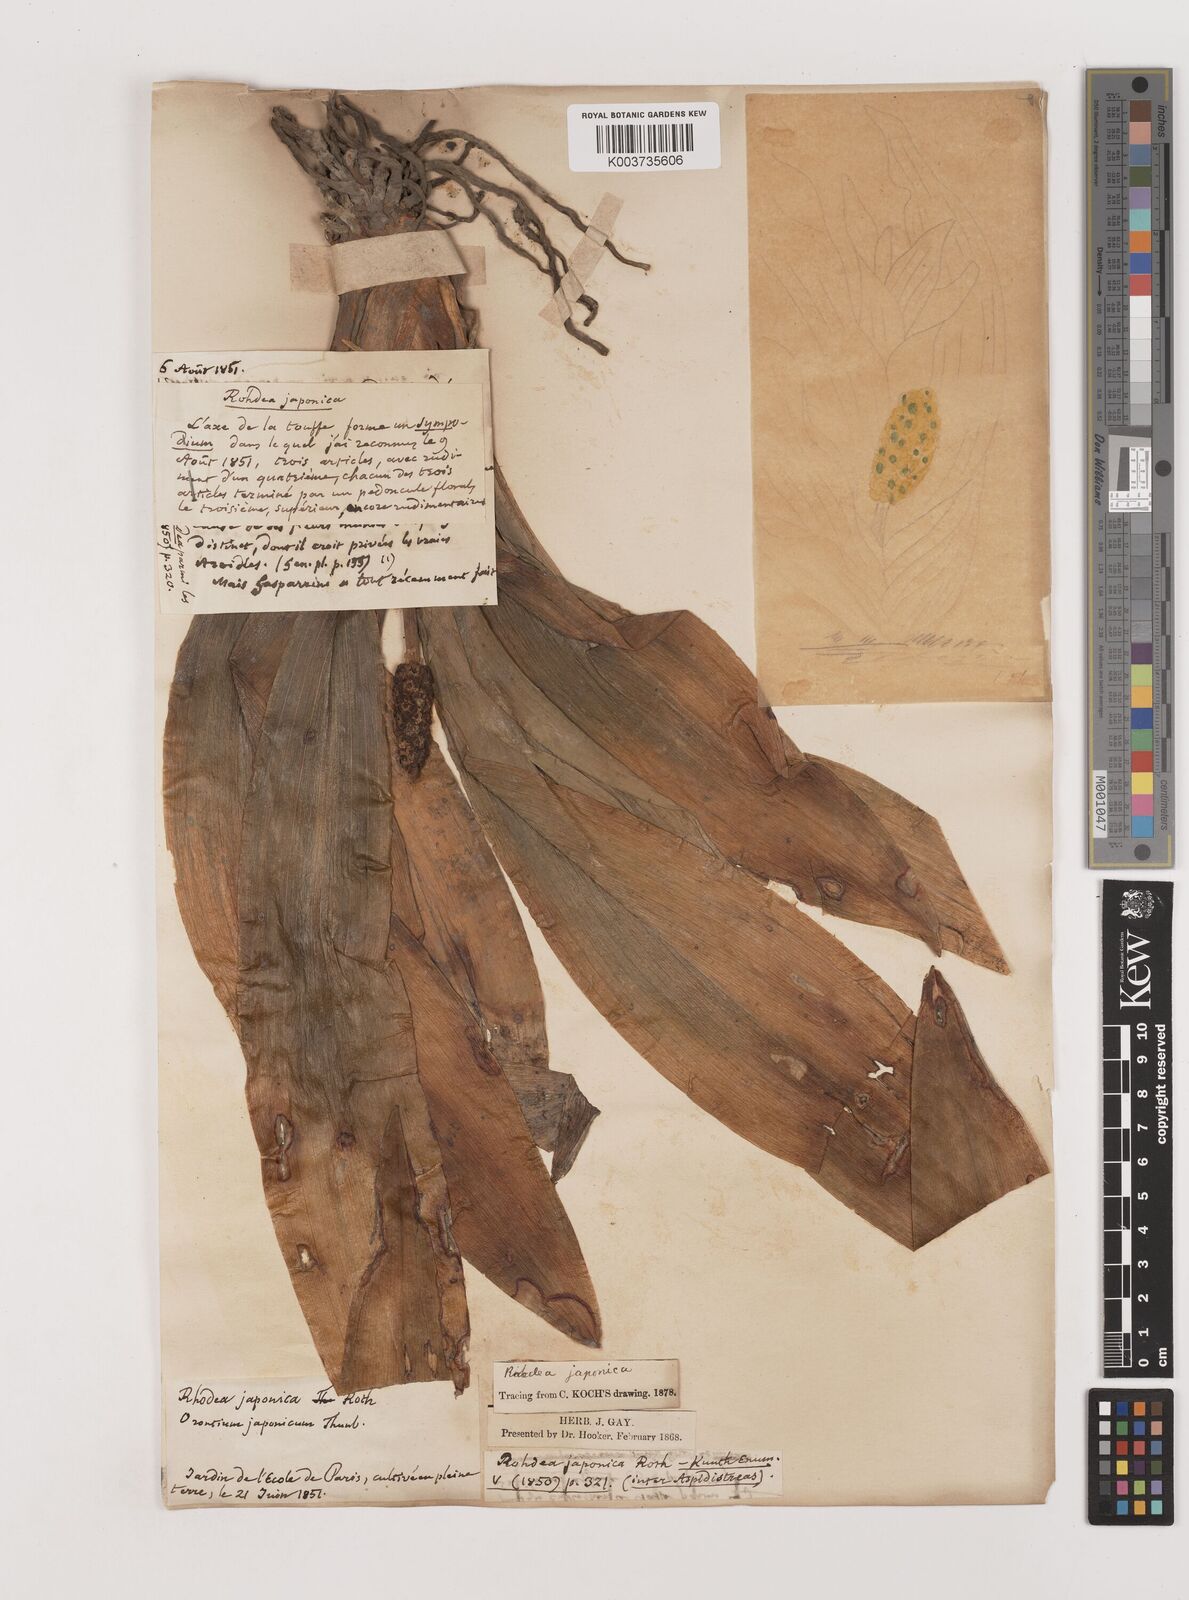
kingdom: Plantae
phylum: Tracheophyta
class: Liliopsida
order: Asparagales
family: Asparagaceae
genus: Rohdea
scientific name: Rohdea japonica
